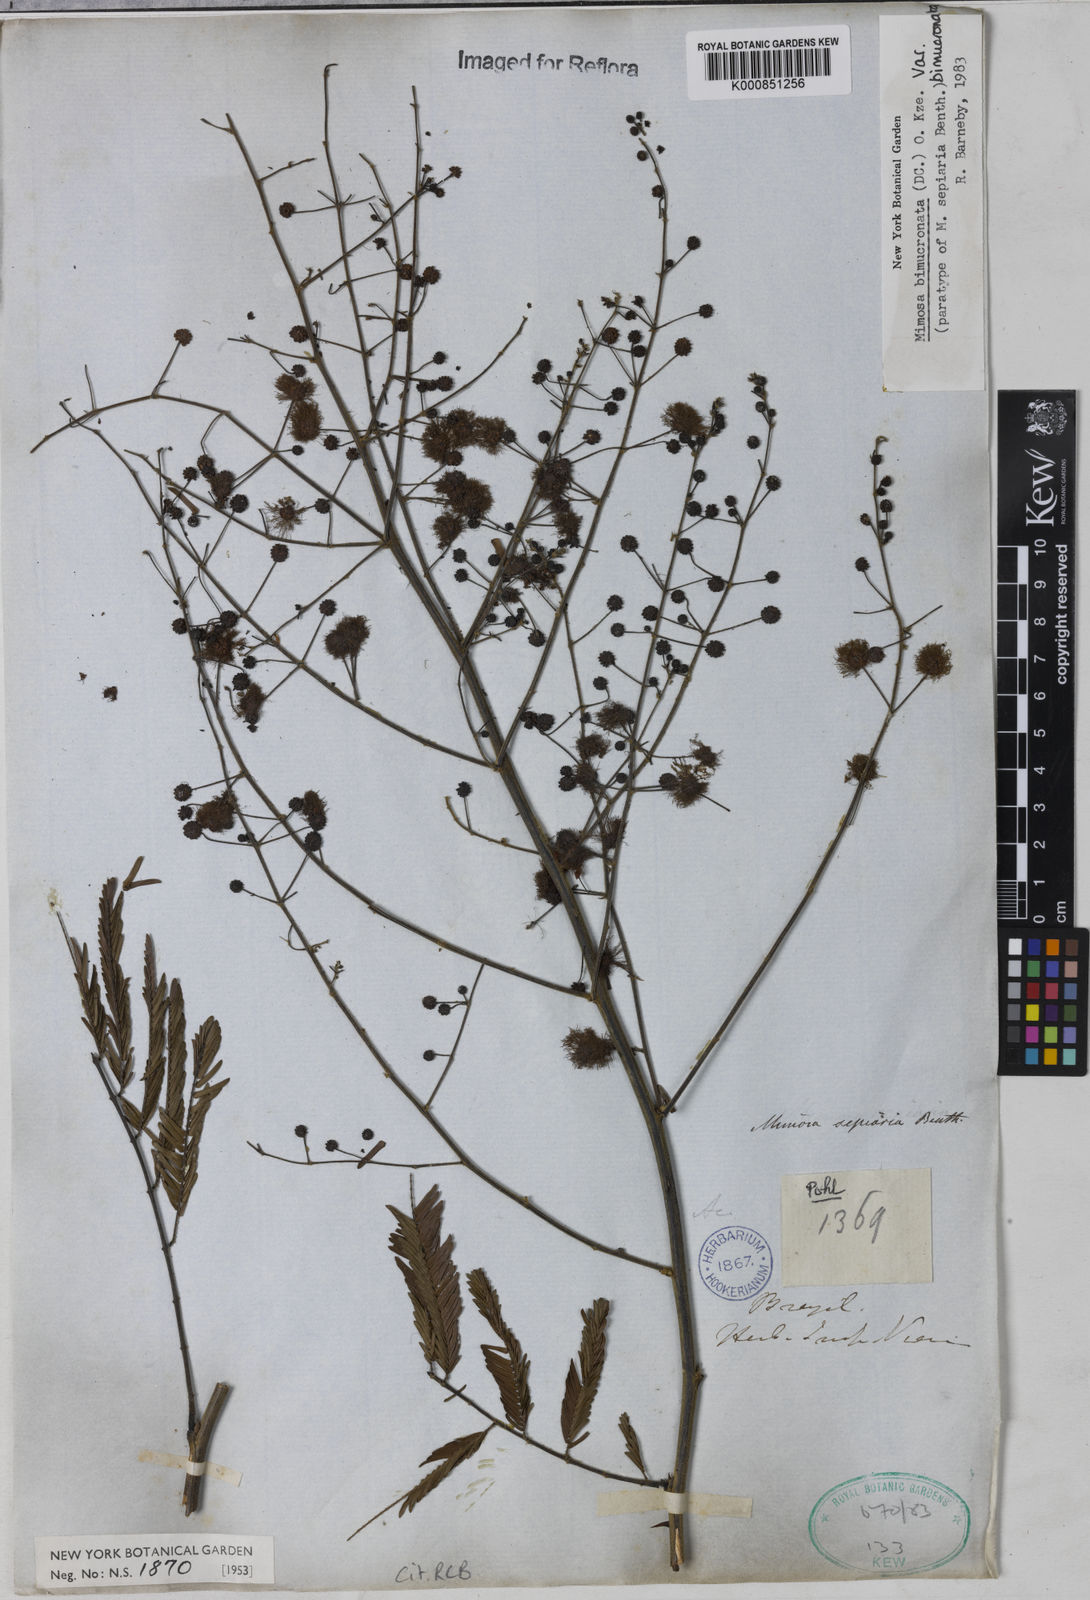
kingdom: Plantae
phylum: Tracheophyta
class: Magnoliopsida
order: Fabales
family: Fabaceae
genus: Mimosa
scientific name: Mimosa bimucronata
